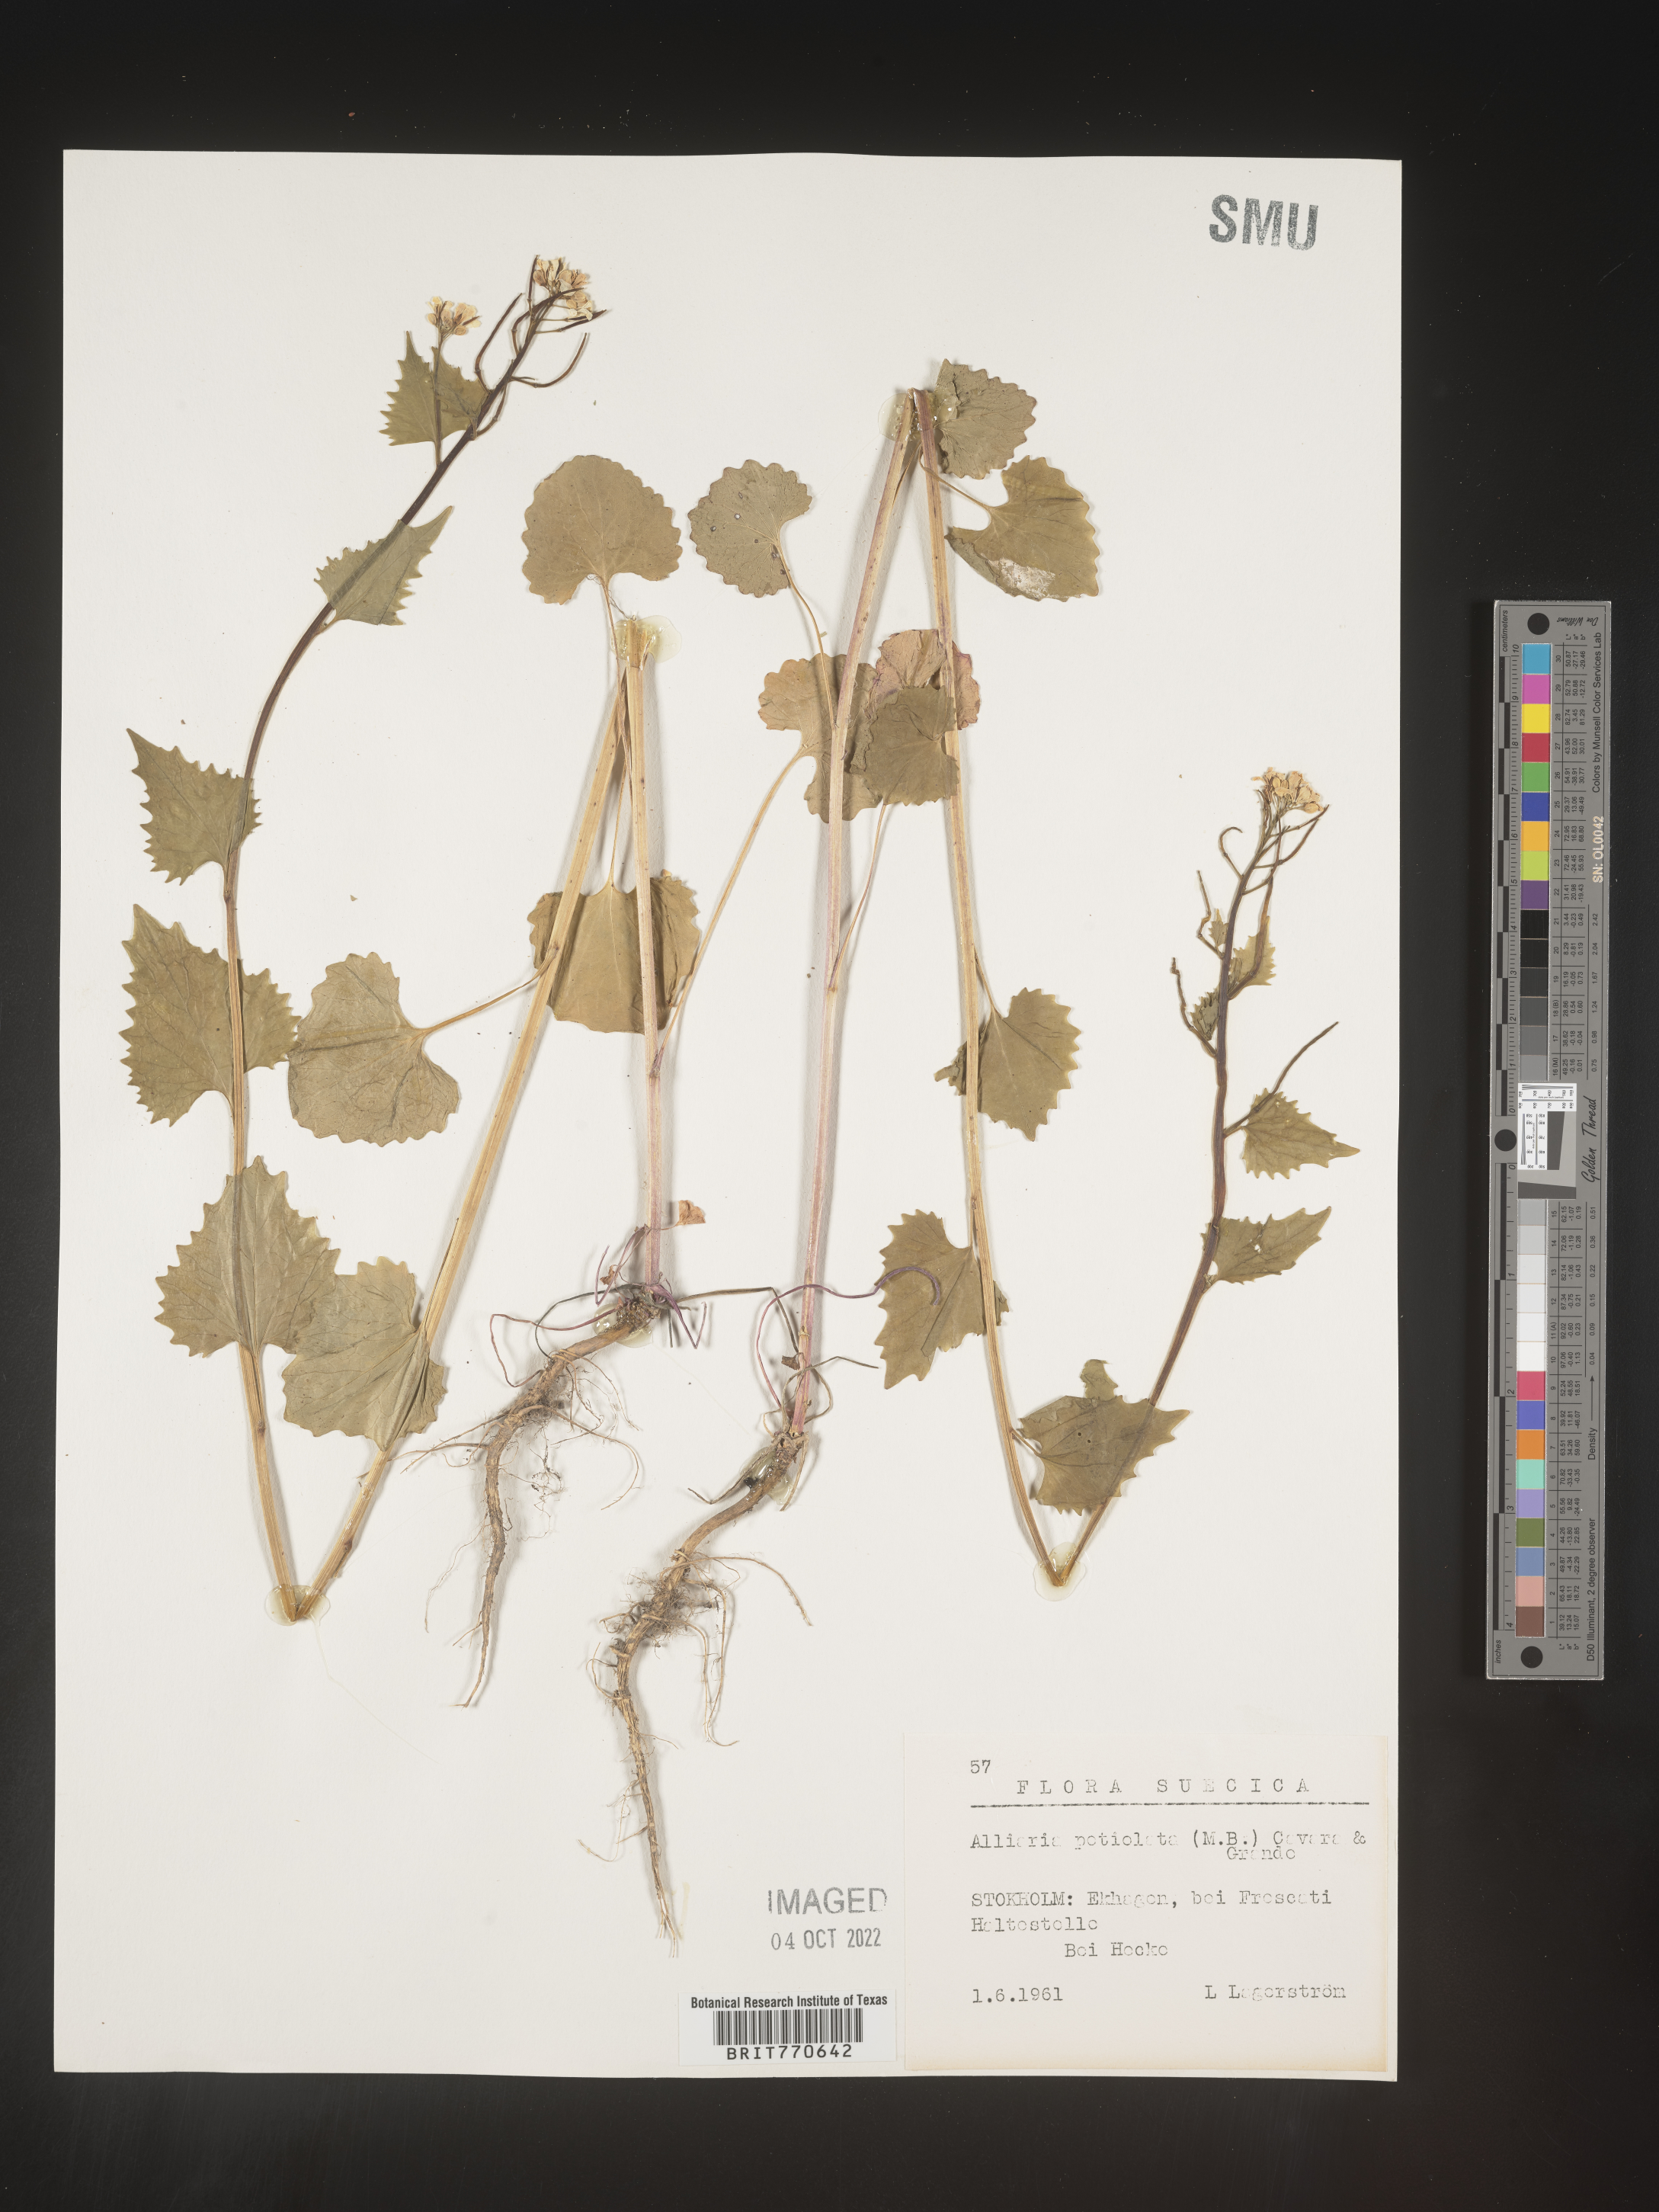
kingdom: Plantae
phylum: Tracheophyta
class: Magnoliopsida
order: Brassicales
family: Brassicaceae
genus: Alliaria
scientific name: Alliaria
